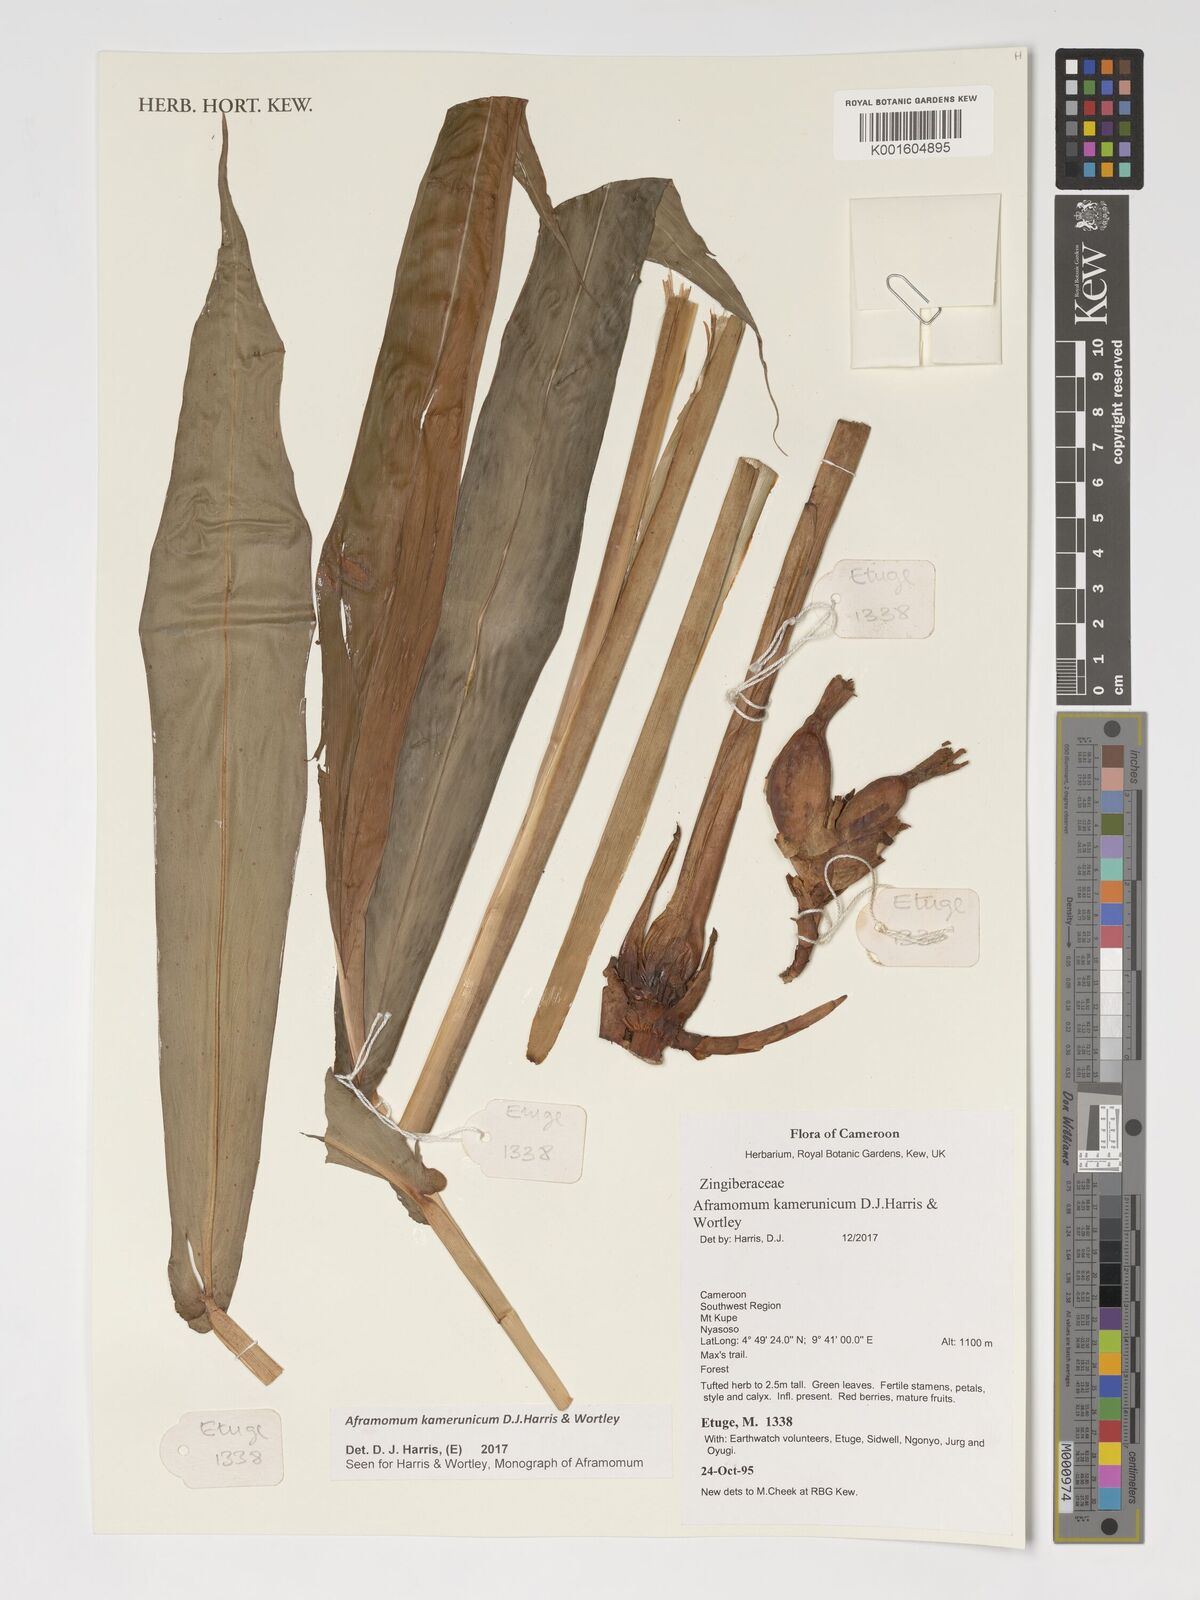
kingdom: Plantae
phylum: Tracheophyta
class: Liliopsida
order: Zingiberales
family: Zingiberaceae
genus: Aframomum
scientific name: Aframomum kamerunicum
